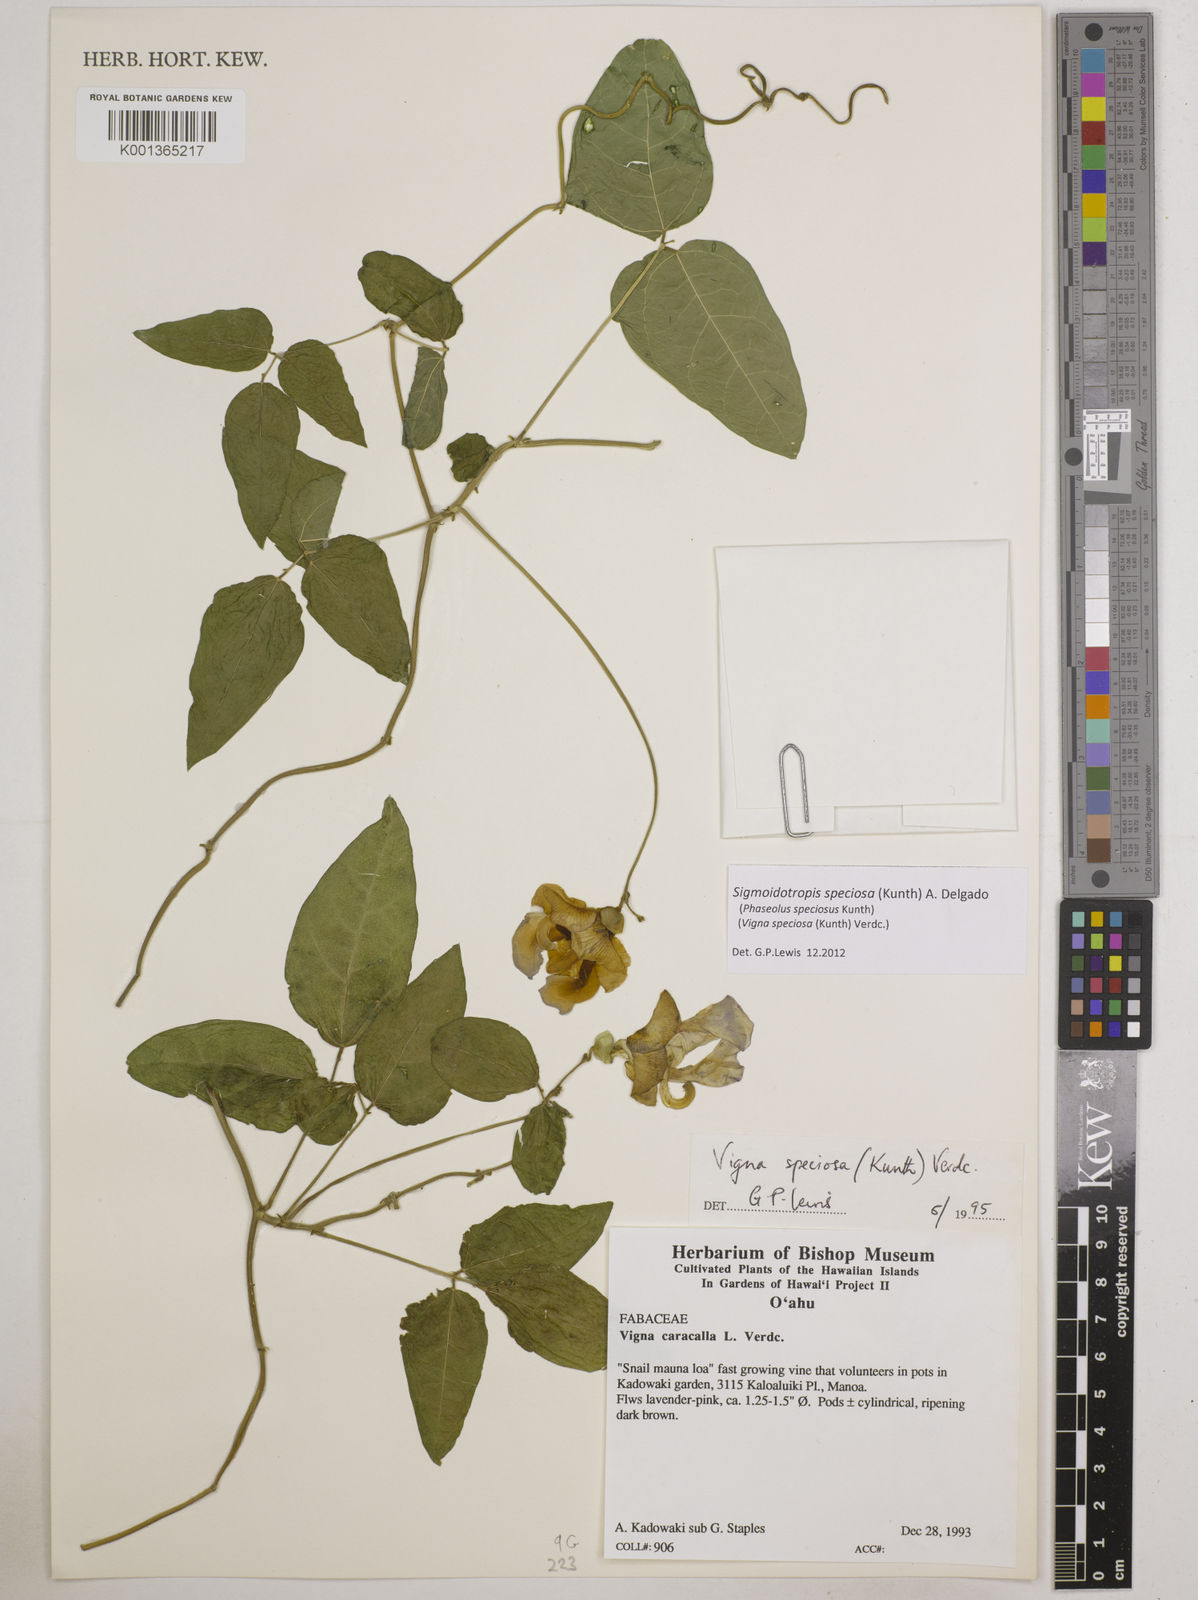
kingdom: Plantae
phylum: Tracheophyta
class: Magnoliopsida
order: Fabales
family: Fabaceae
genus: Sigmoidotropis
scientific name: Sigmoidotropis speciosa
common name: Snail flower
